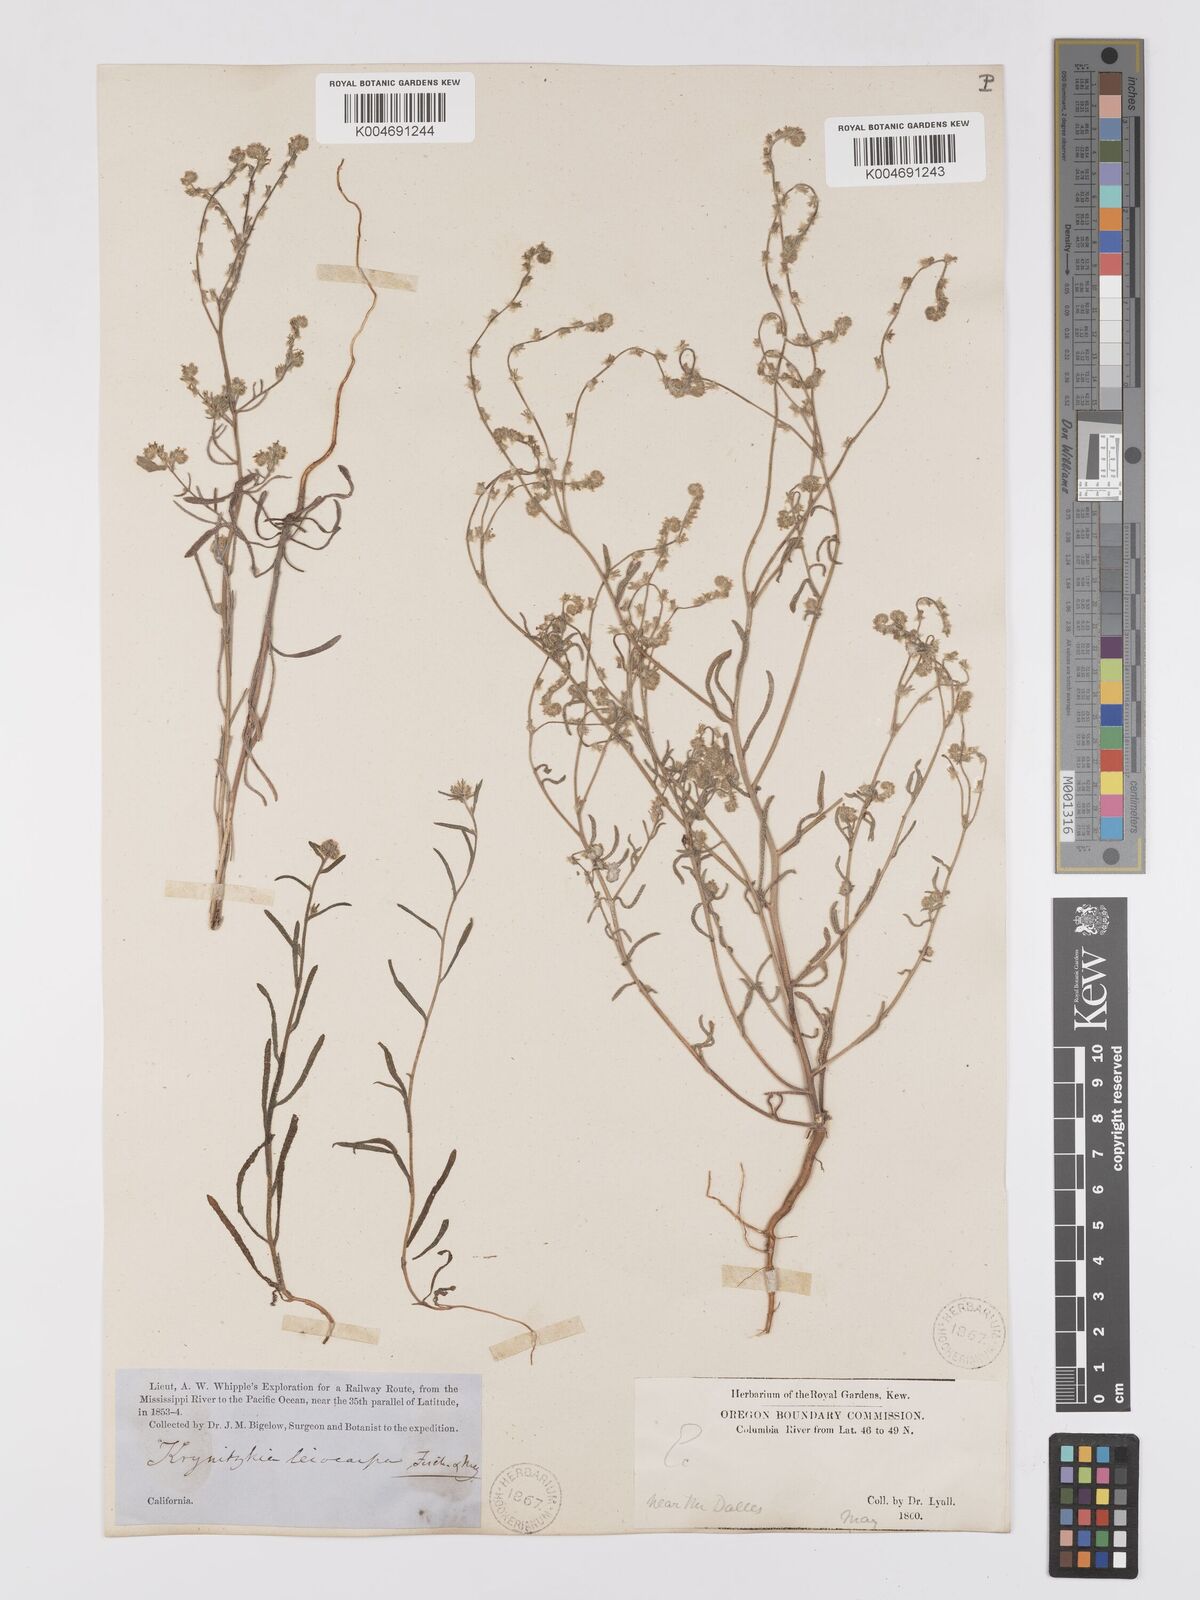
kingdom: Plantae
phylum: Tracheophyta
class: Magnoliopsida
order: Boraginales
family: Boraginaceae
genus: Cryptantha
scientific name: Cryptantha flaccida
